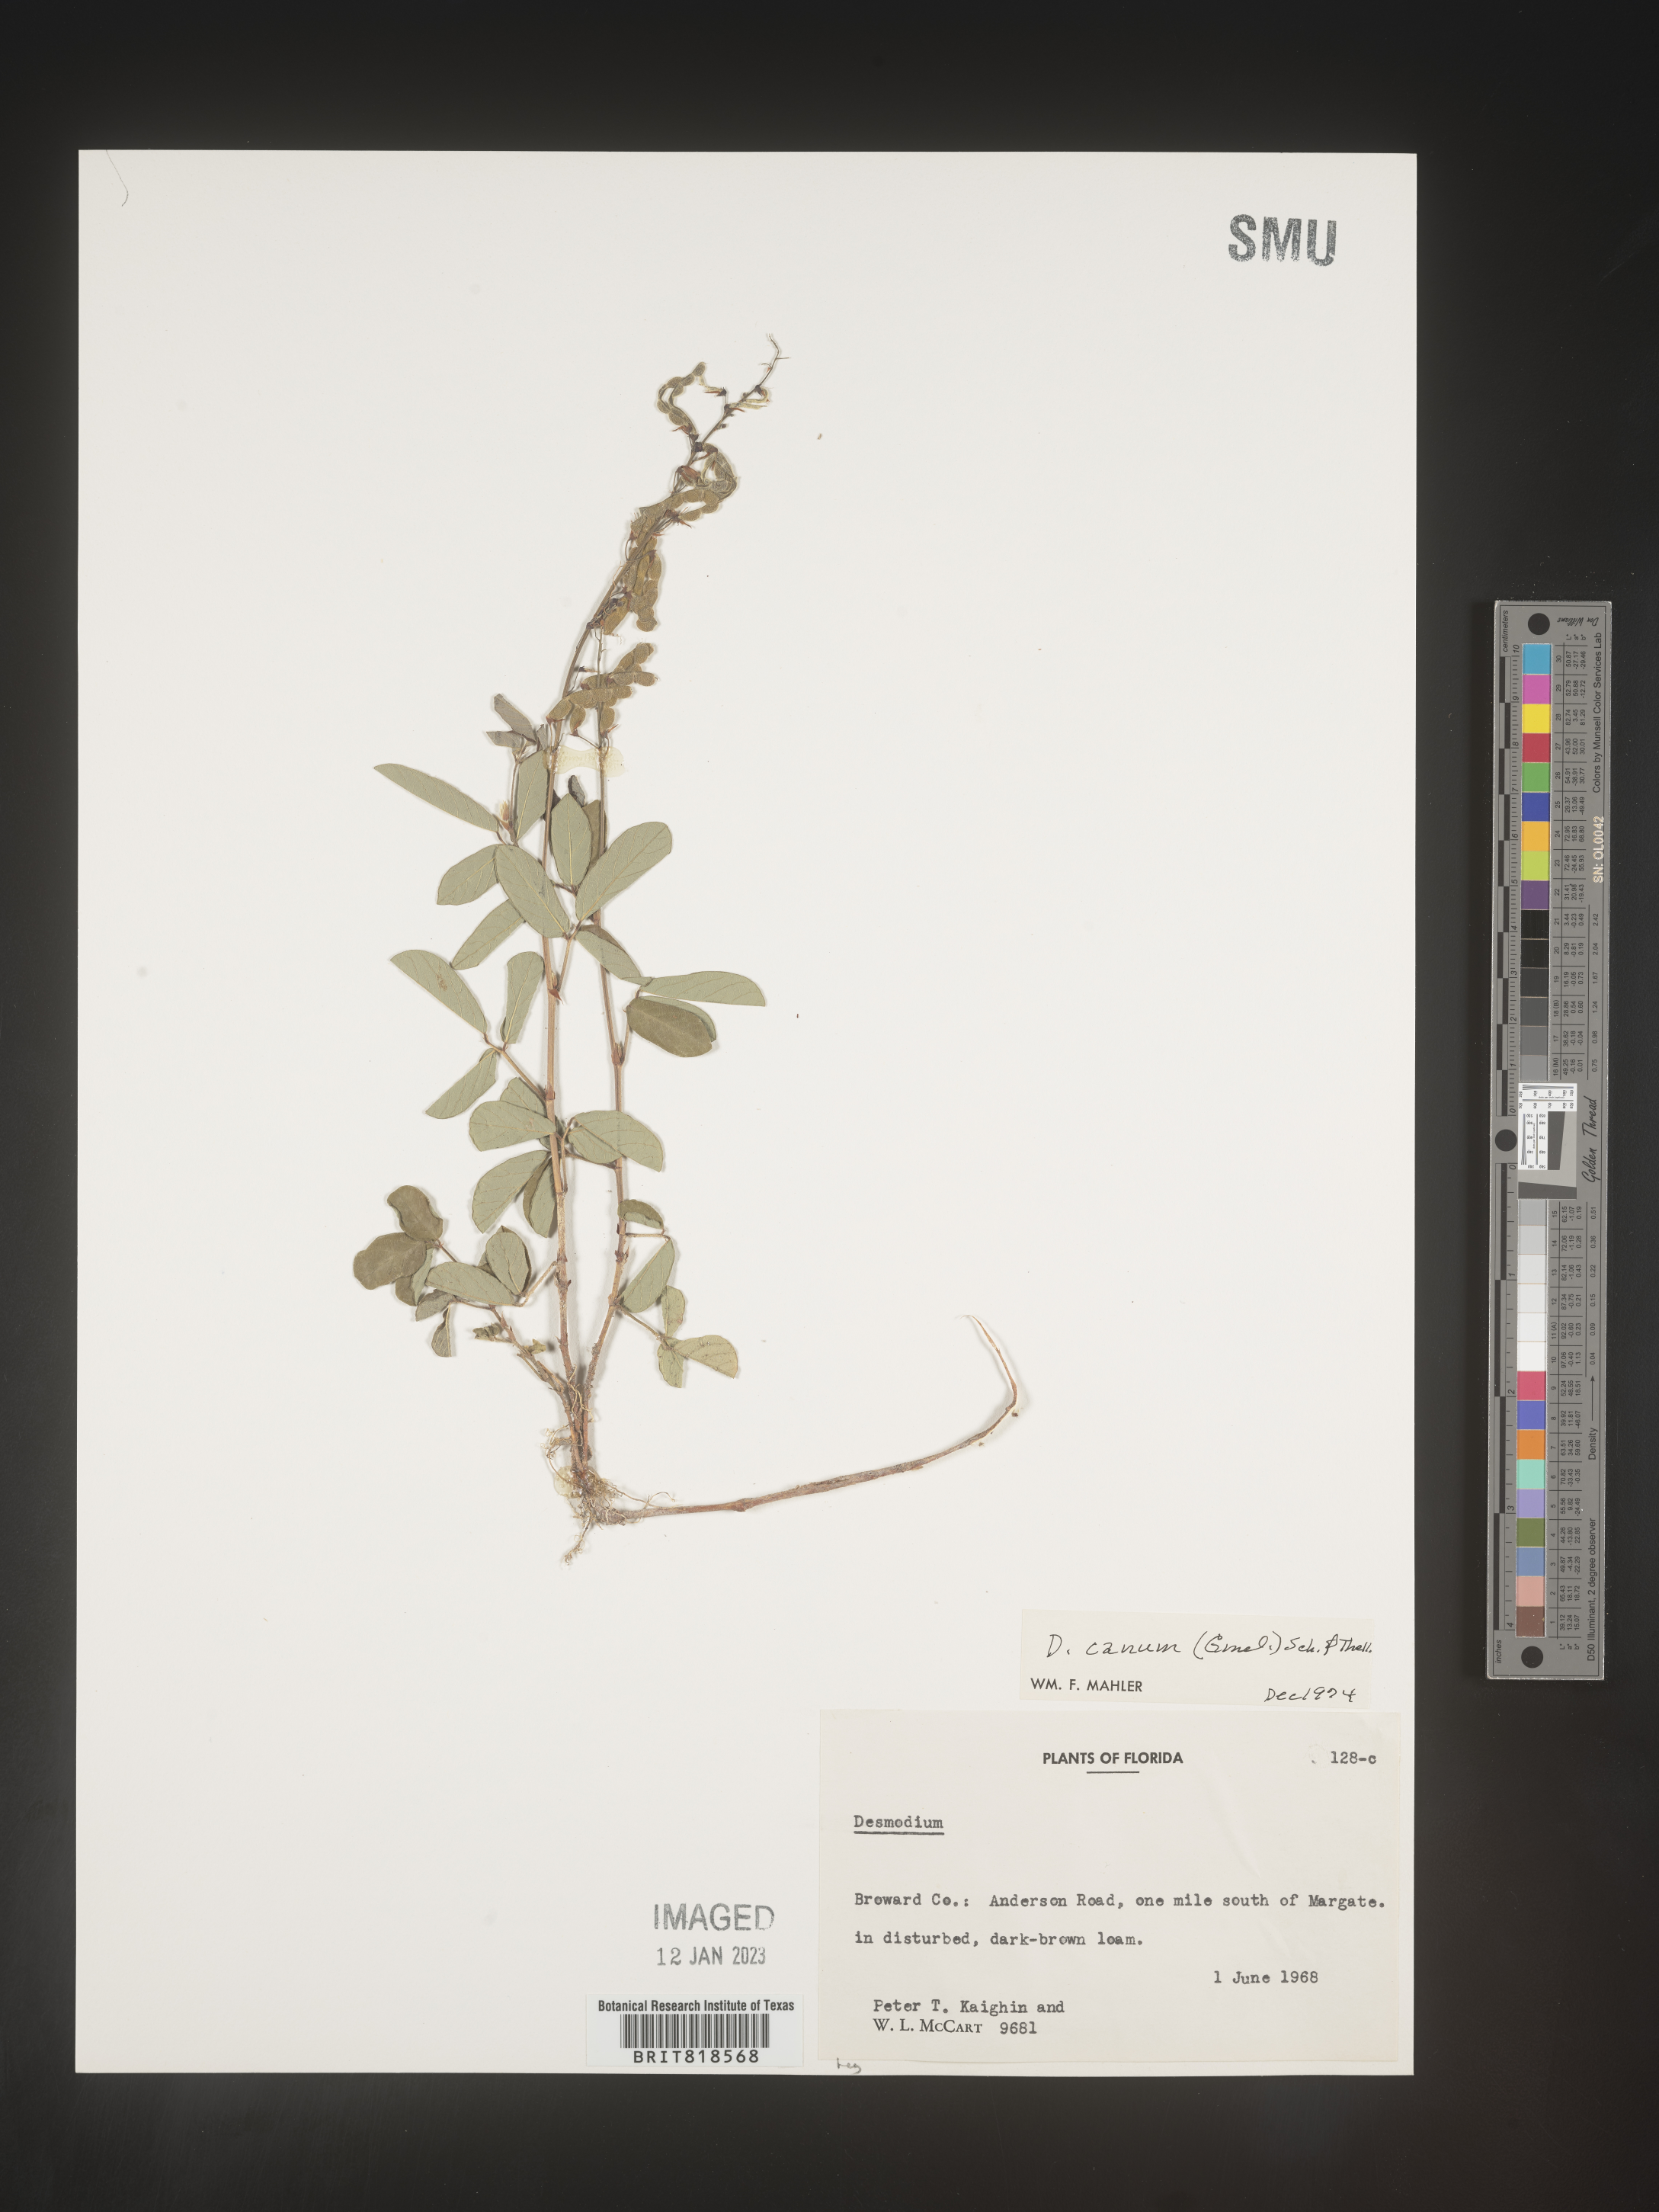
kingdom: Plantae
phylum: Tracheophyta
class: Magnoliopsida
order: Fabales
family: Fabaceae
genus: Desmodium
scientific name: Desmodium incanum
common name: Tickclover
